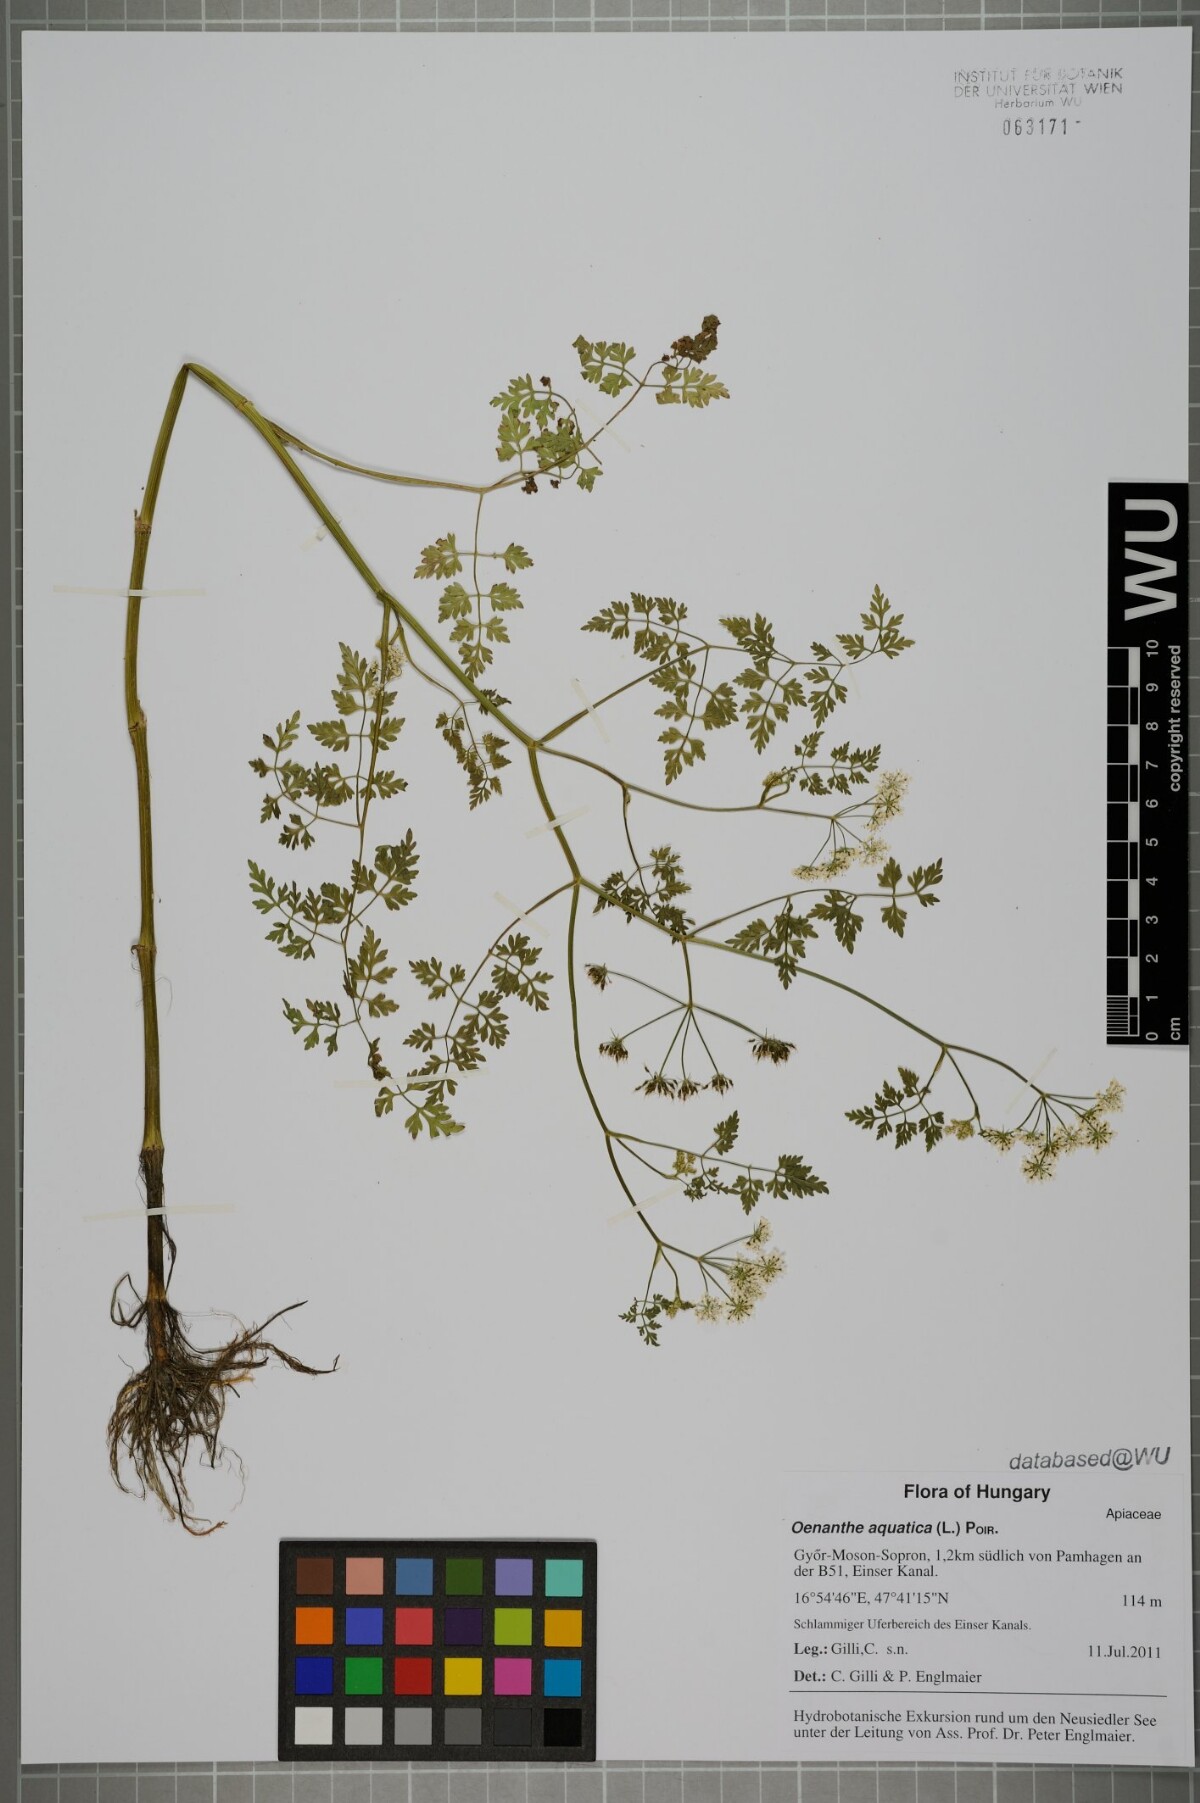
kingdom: Plantae
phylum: Tracheophyta
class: Magnoliopsida
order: Apiales
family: Apiaceae
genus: Oenanthe
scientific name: Oenanthe aquatica
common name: Fine-leaved water-dropwort
